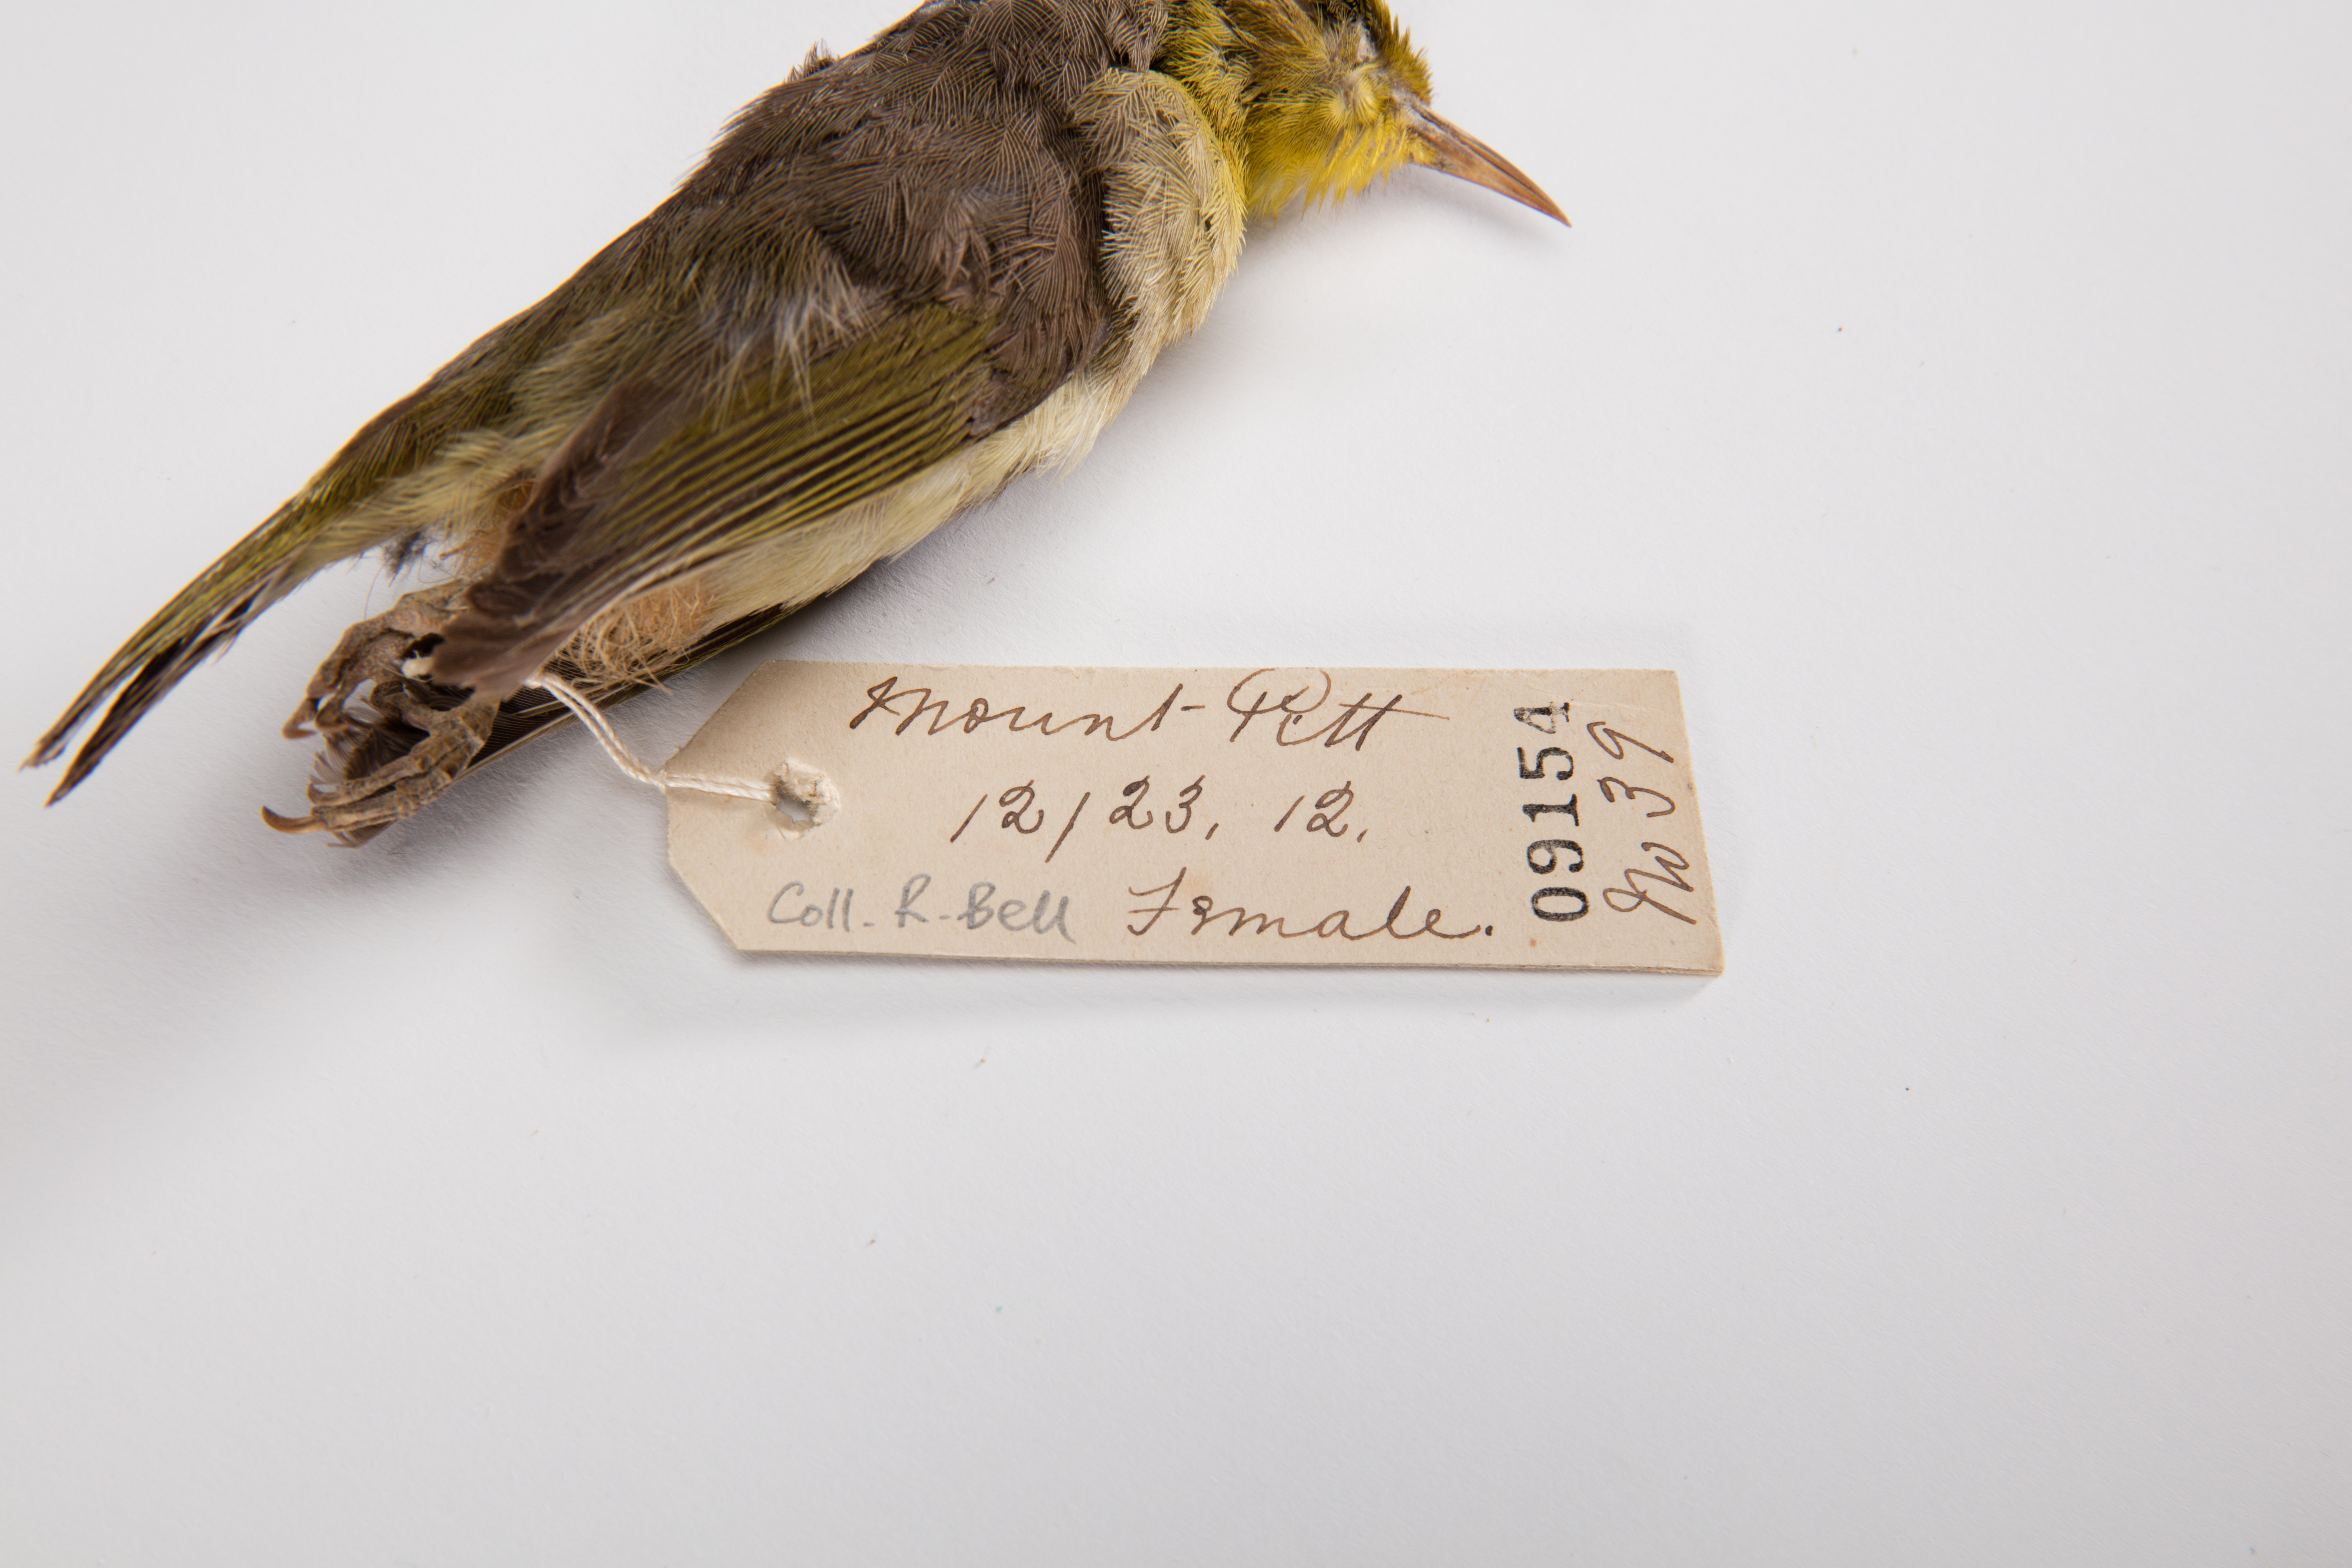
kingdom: Animalia
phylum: Chordata
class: Aves
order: Passeriformes
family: Zosteropidae
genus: Zosterops
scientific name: Zosterops tenuirostris
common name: Slender-billed white-eye
